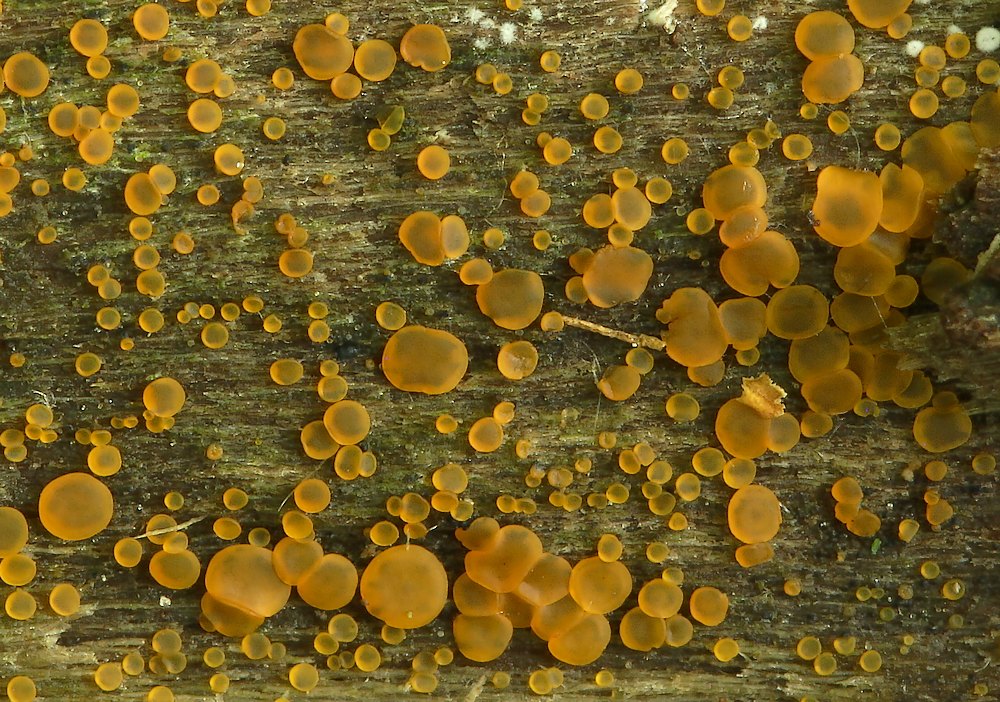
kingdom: Fungi
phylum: Ascomycota
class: Orbiliomycetes
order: Orbiliales
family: Orbiliaceae
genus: Orbilia
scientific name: Orbilia xanthostigma
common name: krumsporet voksskive
